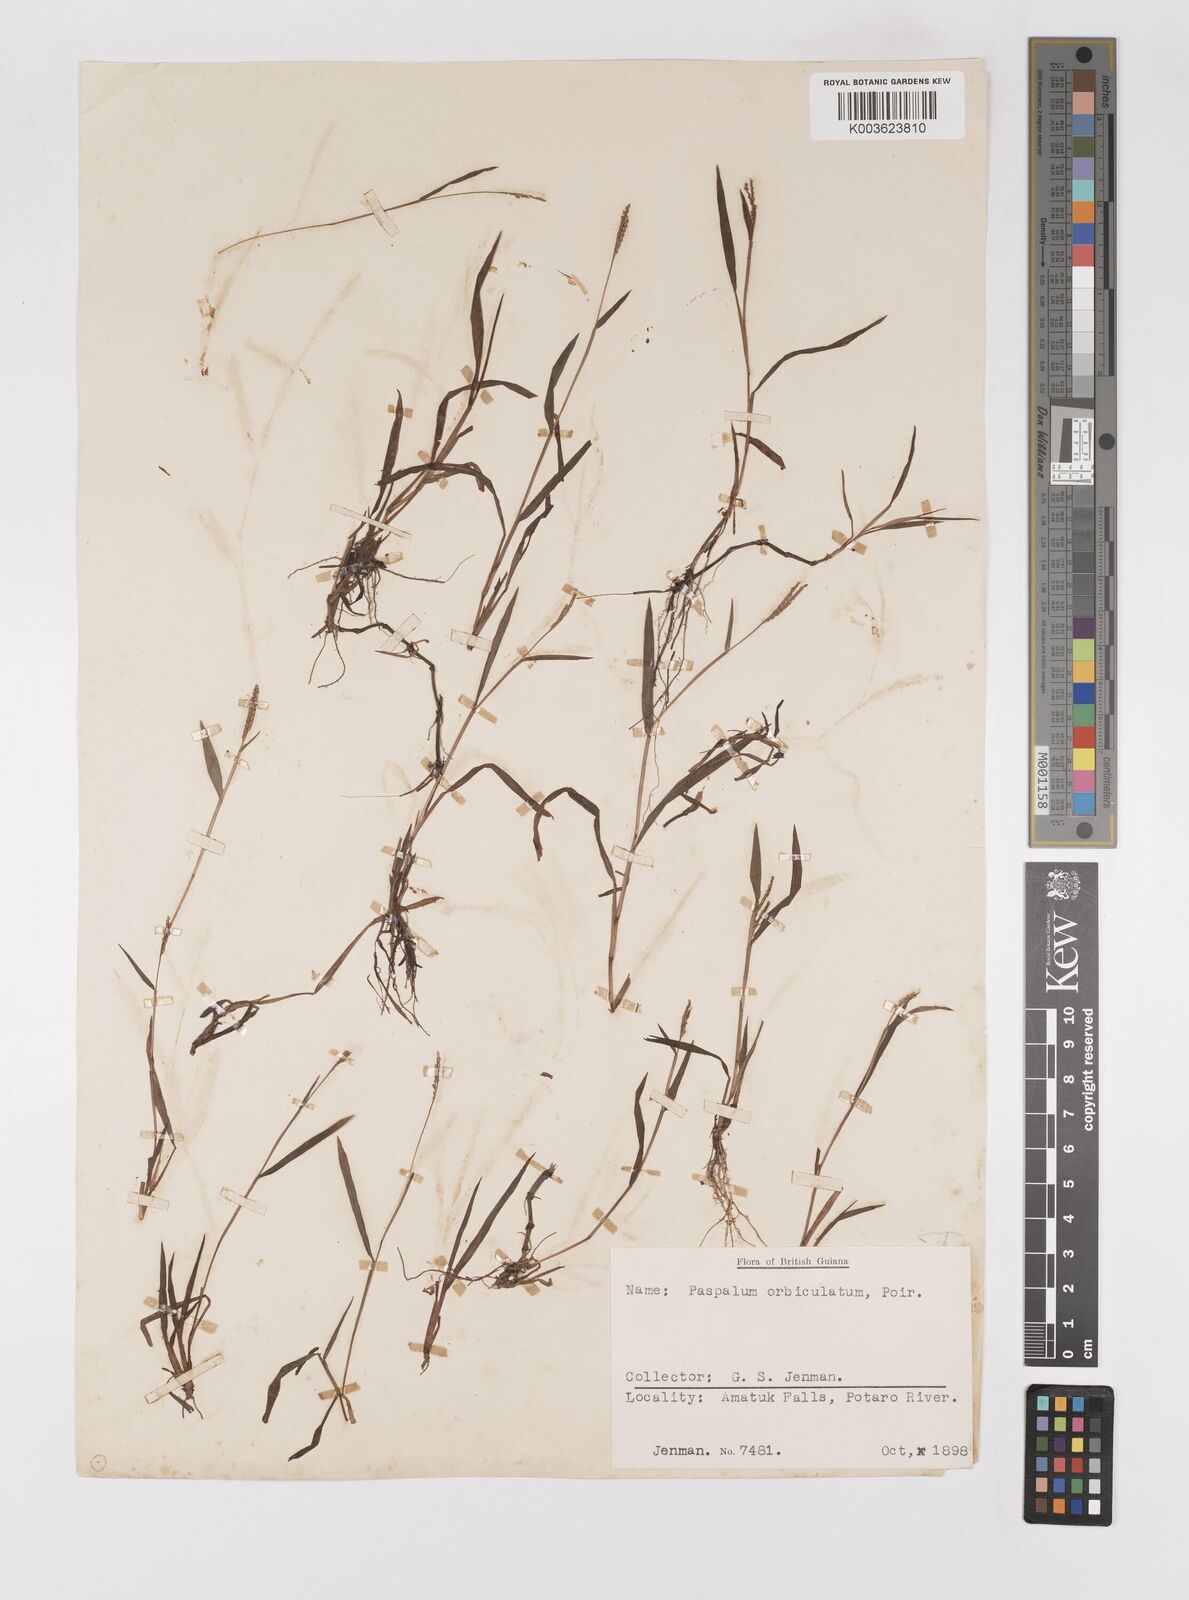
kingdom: Plantae
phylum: Tracheophyta
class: Liliopsida
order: Poales
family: Poaceae
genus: Paspalum
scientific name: Paspalum orbiculatum
